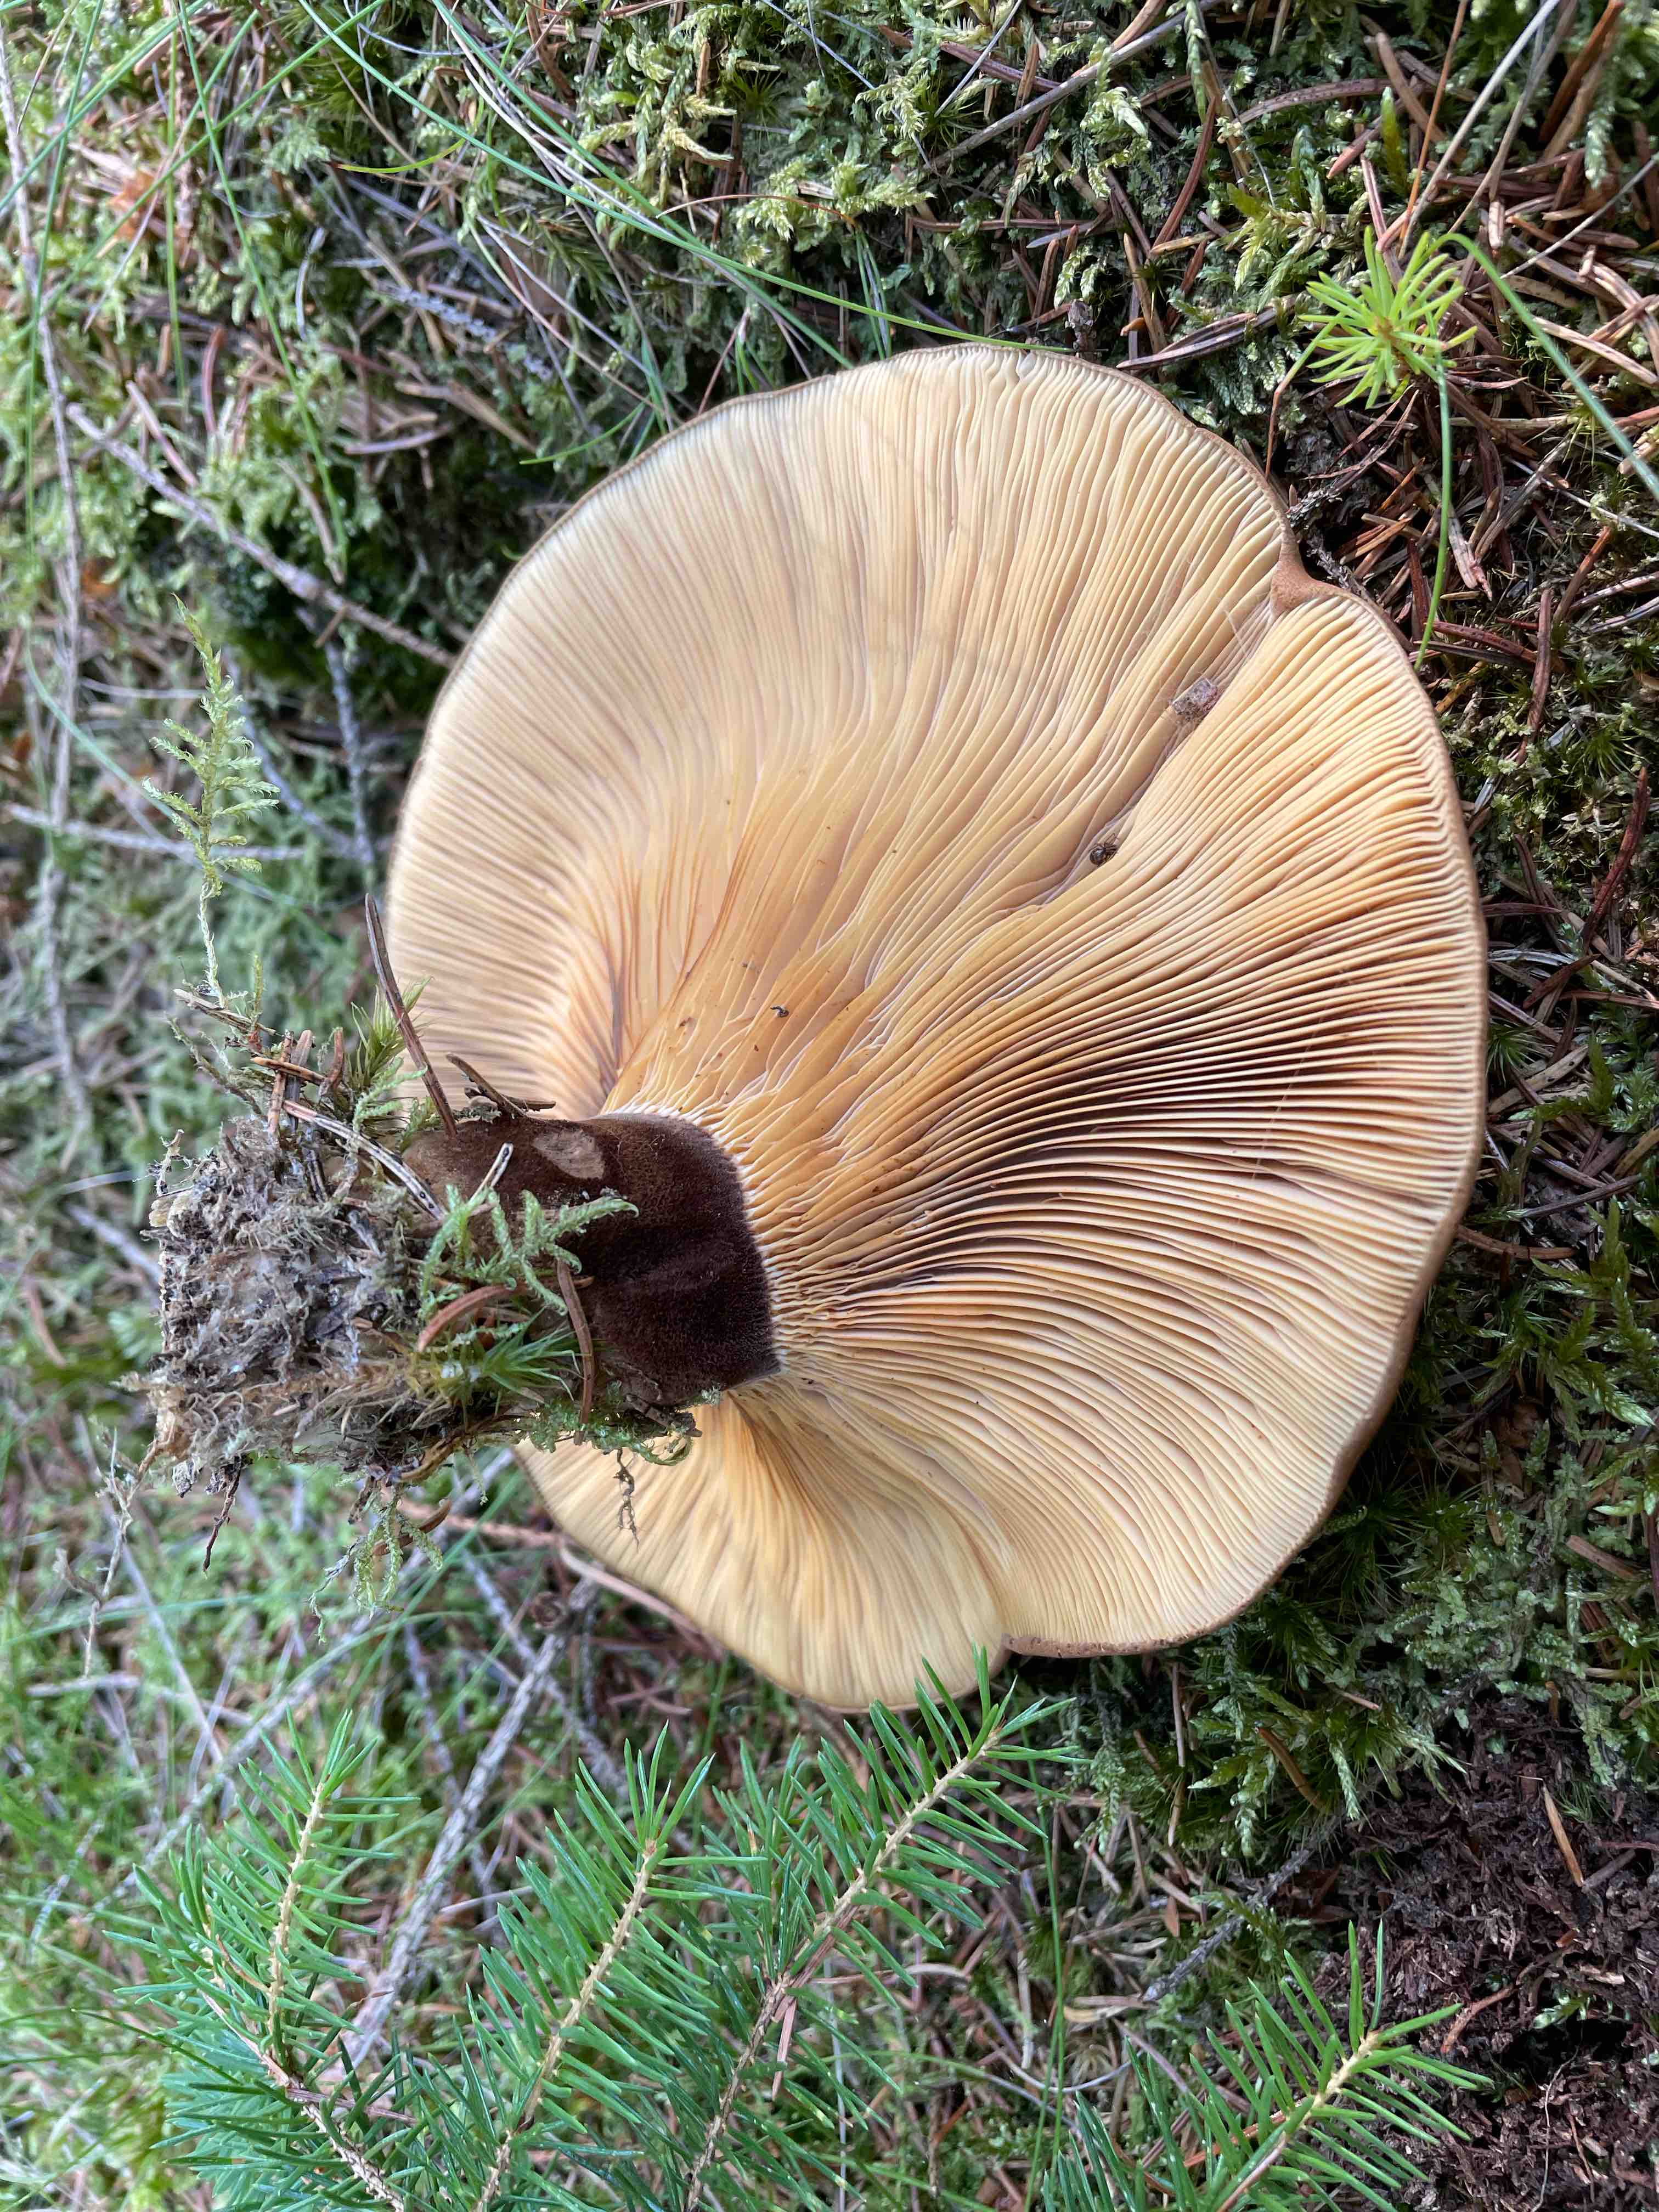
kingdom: Fungi
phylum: Basidiomycota
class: Agaricomycetes
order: Boletales
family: Tapinellaceae
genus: Tapinella
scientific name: Tapinella atrotomentosa
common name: sortfiltet viftesvamp
